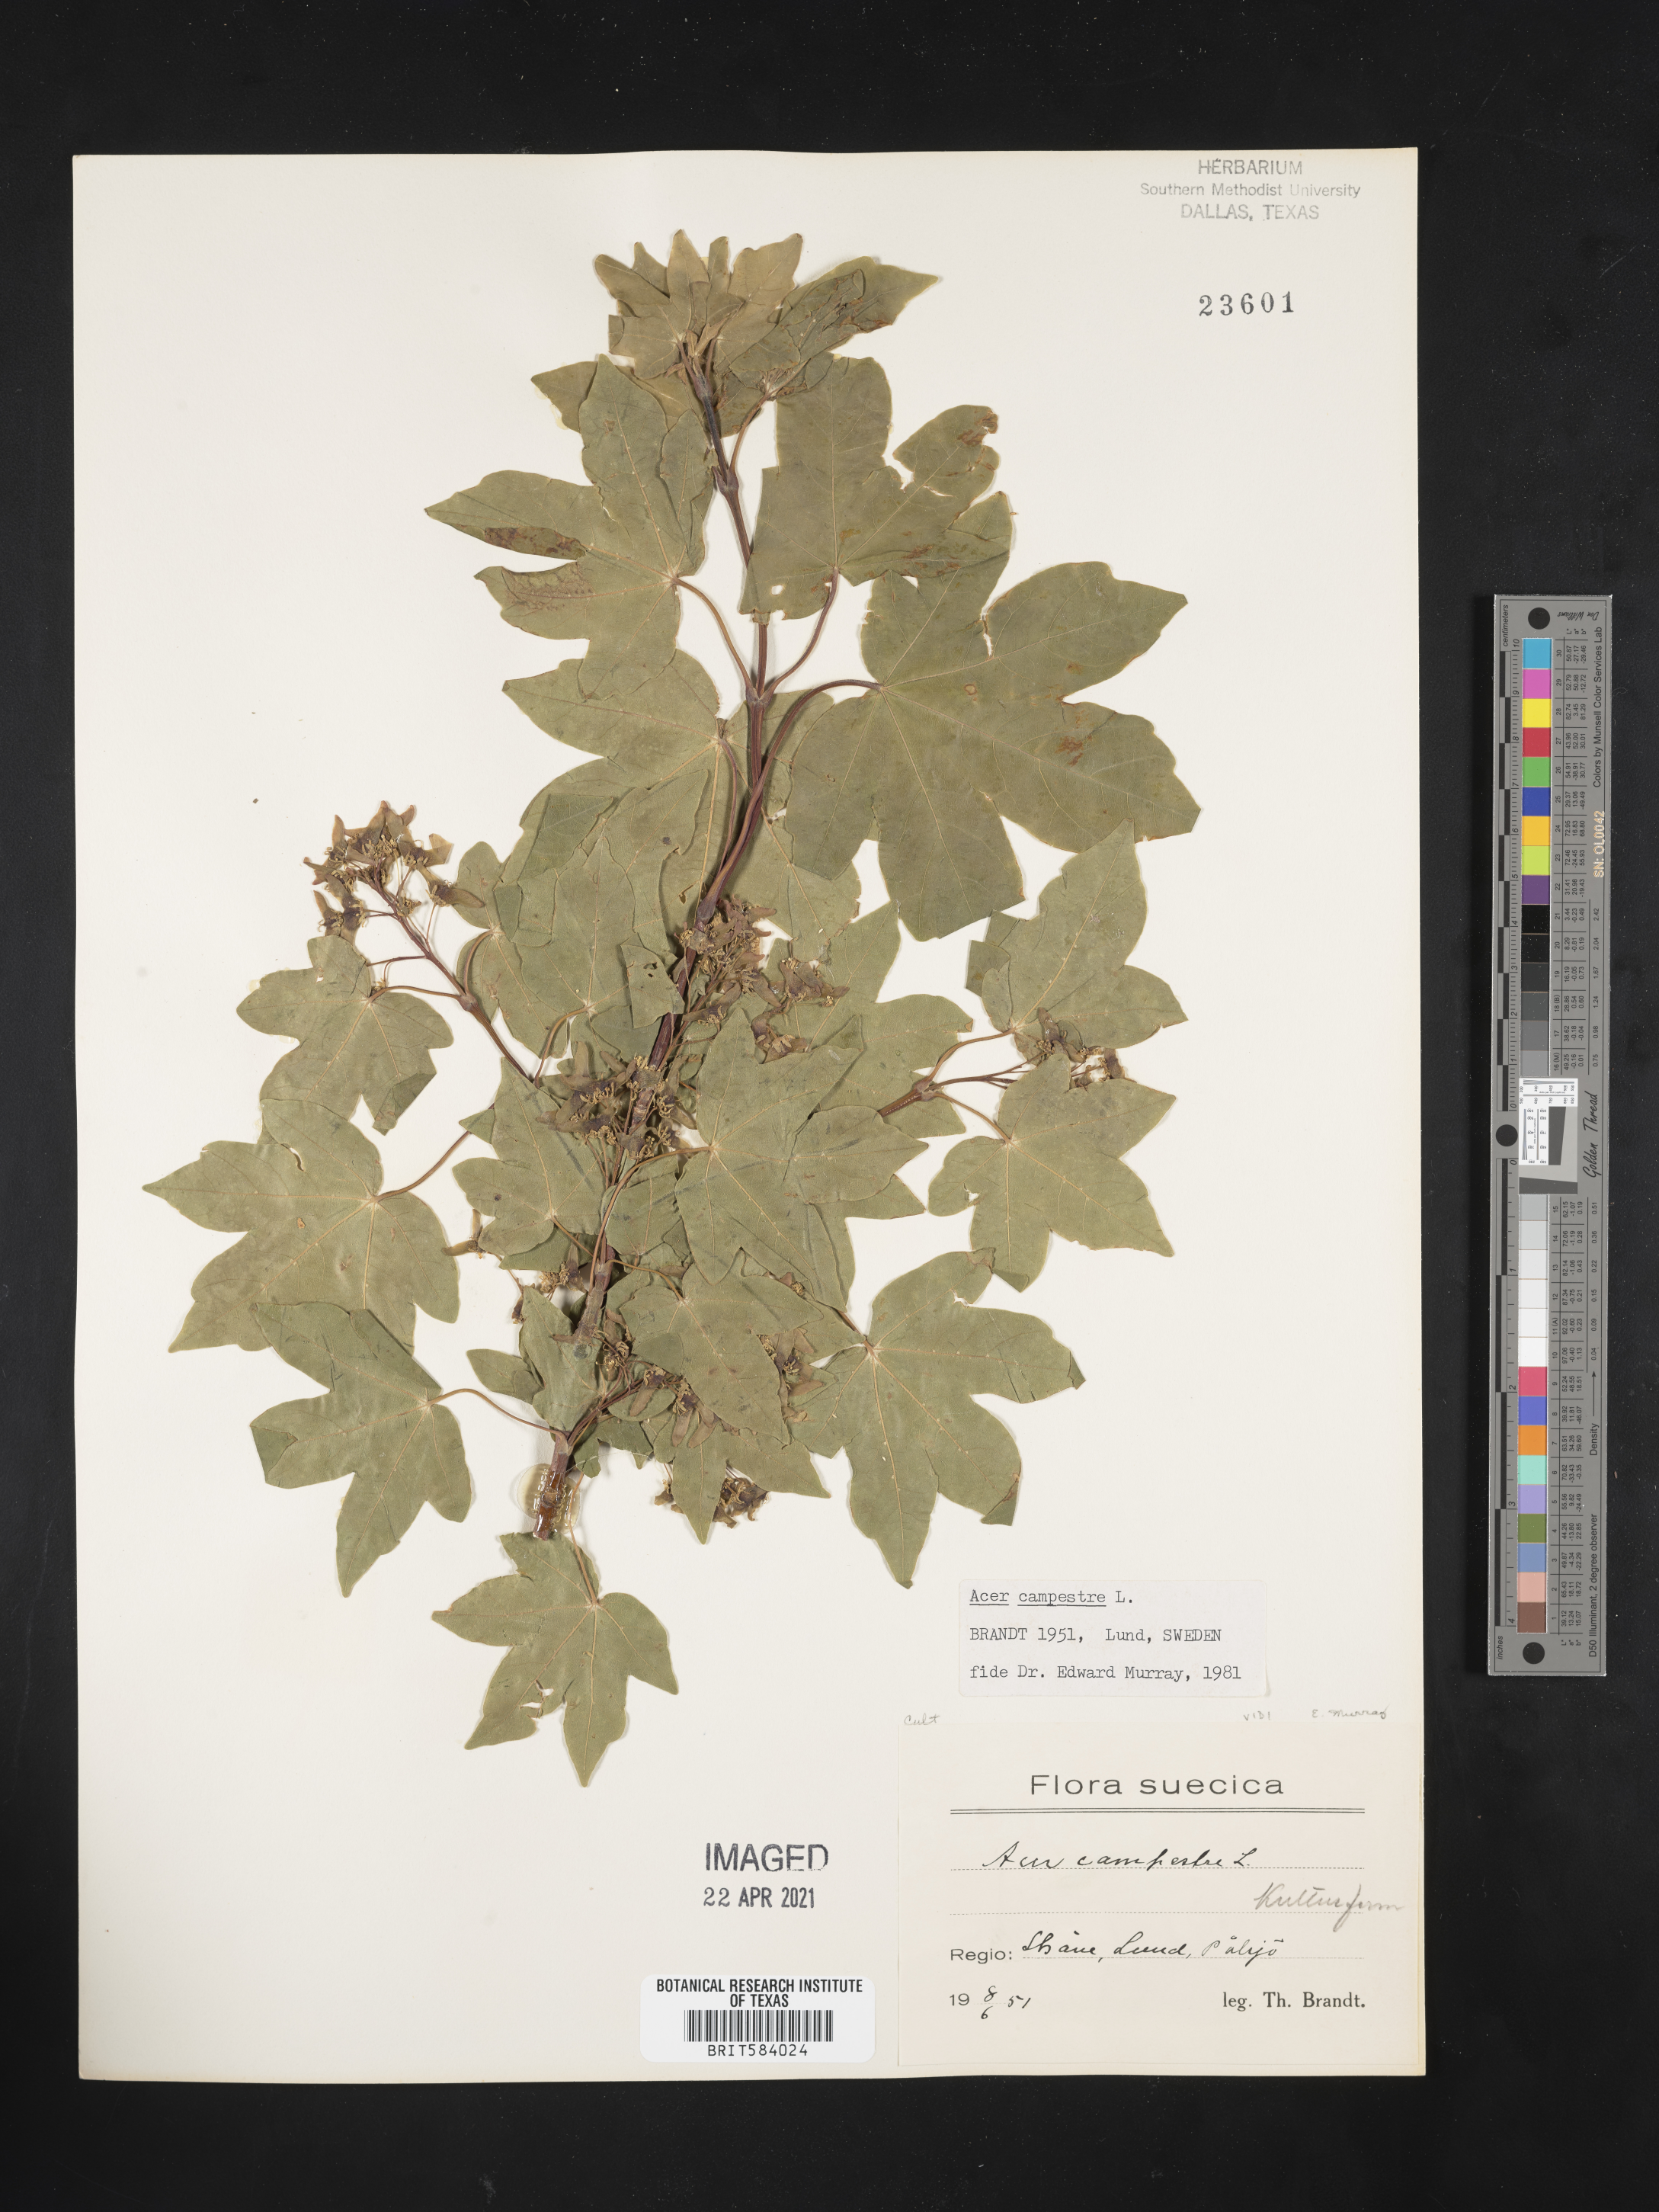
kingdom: Plantae
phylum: Tracheophyta
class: Magnoliopsida
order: Sapindales
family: Sapindaceae
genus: Acer
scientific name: Acer campestre
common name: Field maple
